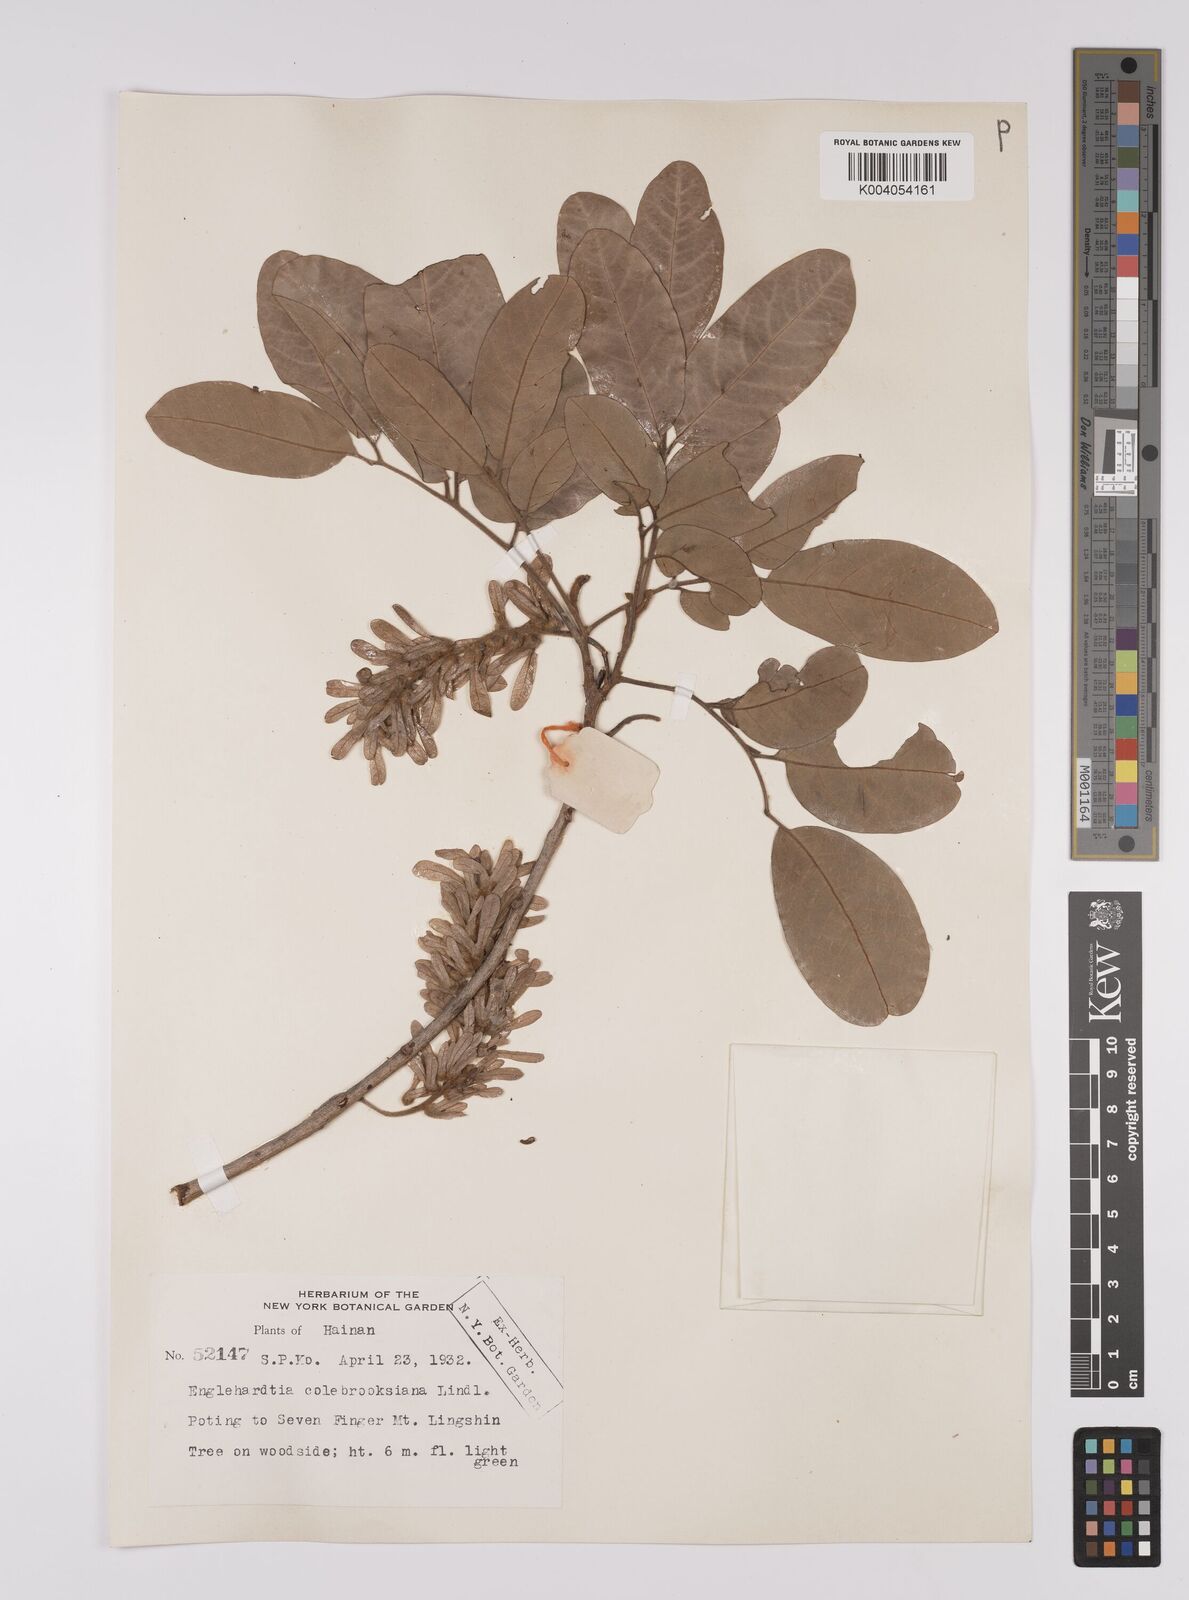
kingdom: Plantae
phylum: Tracheophyta
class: Magnoliopsida
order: Fagales
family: Juglandaceae
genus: Engelhardia
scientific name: Engelhardia spicata
